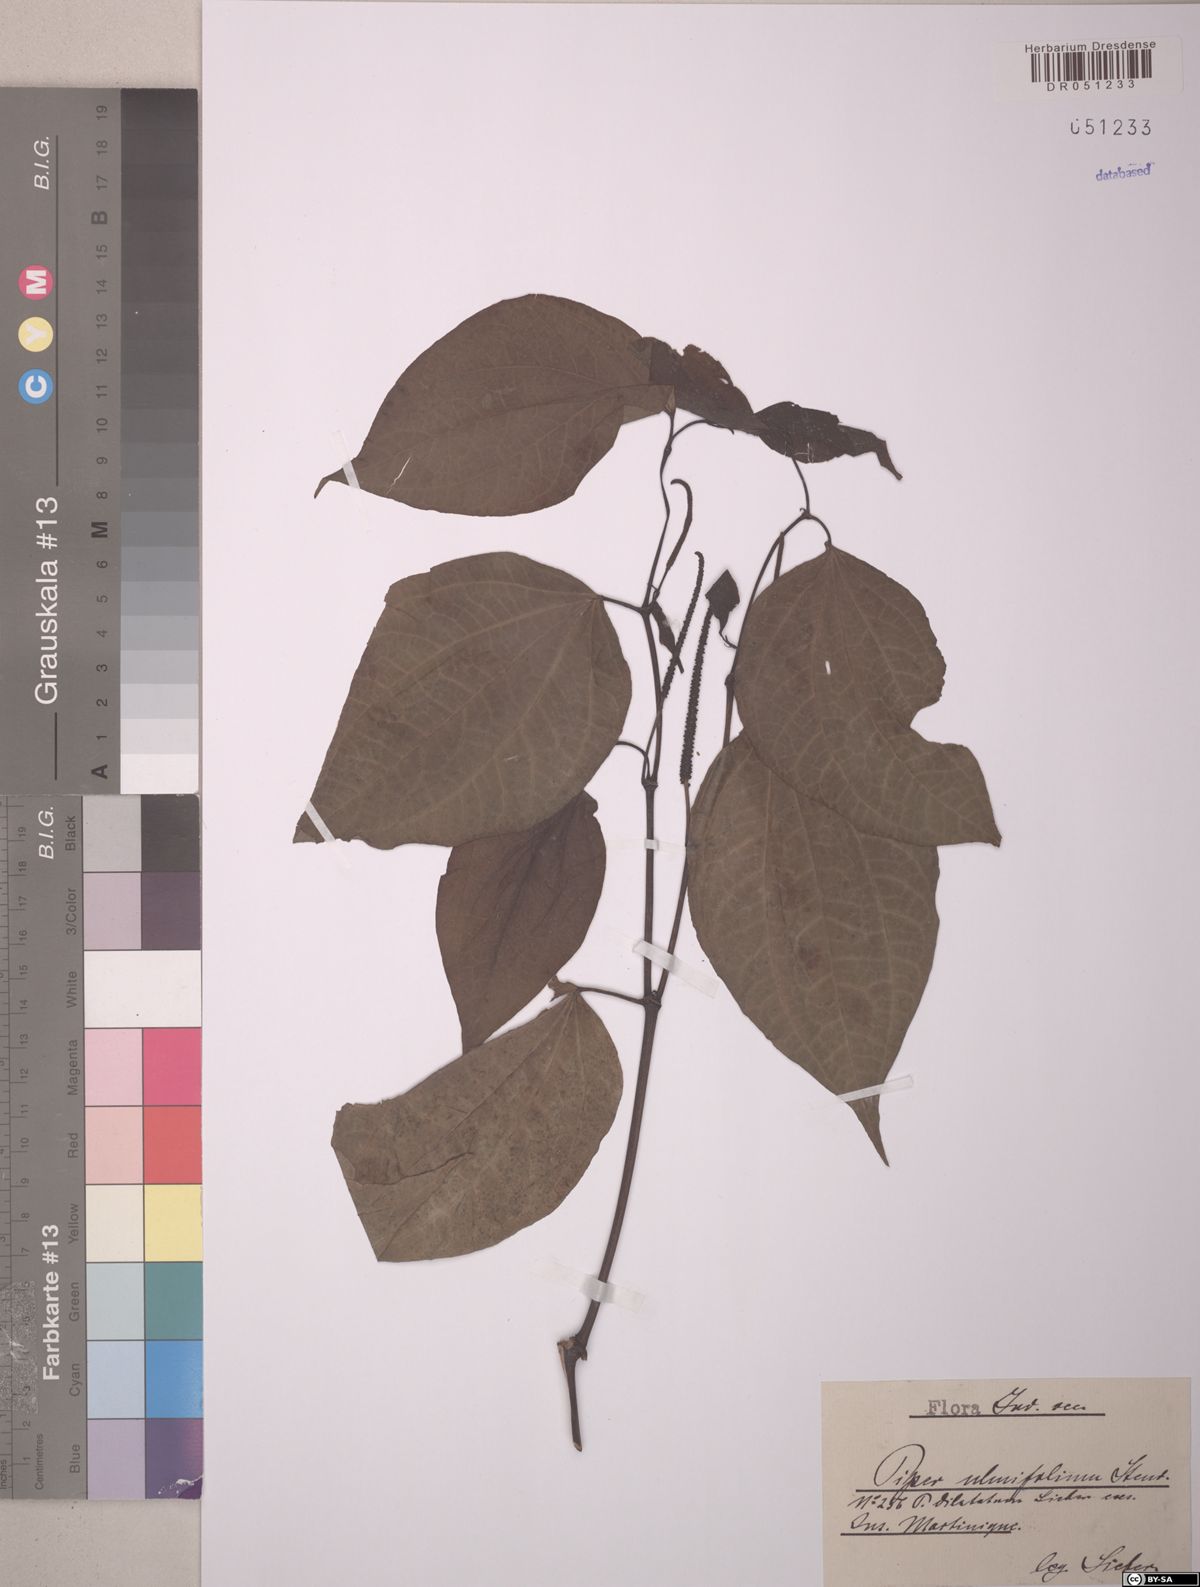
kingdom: Plantae
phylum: Tracheophyta
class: Magnoliopsida
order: Piperales
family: Piperaceae
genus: Piper
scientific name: Piper dilatatum
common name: Higuillo
